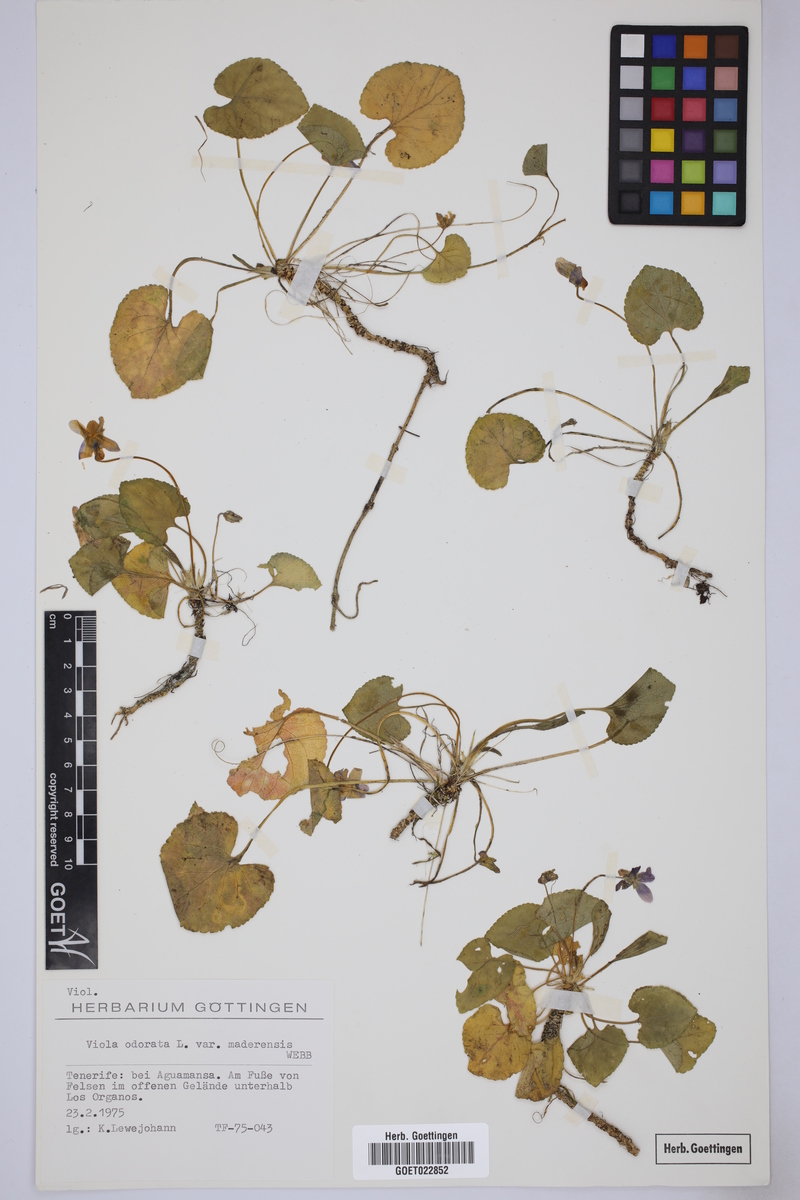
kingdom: Plantae
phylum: Tracheophyta
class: Magnoliopsida
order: Malpighiales
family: Violaceae
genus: Viola
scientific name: Viola cheiranthifolia
